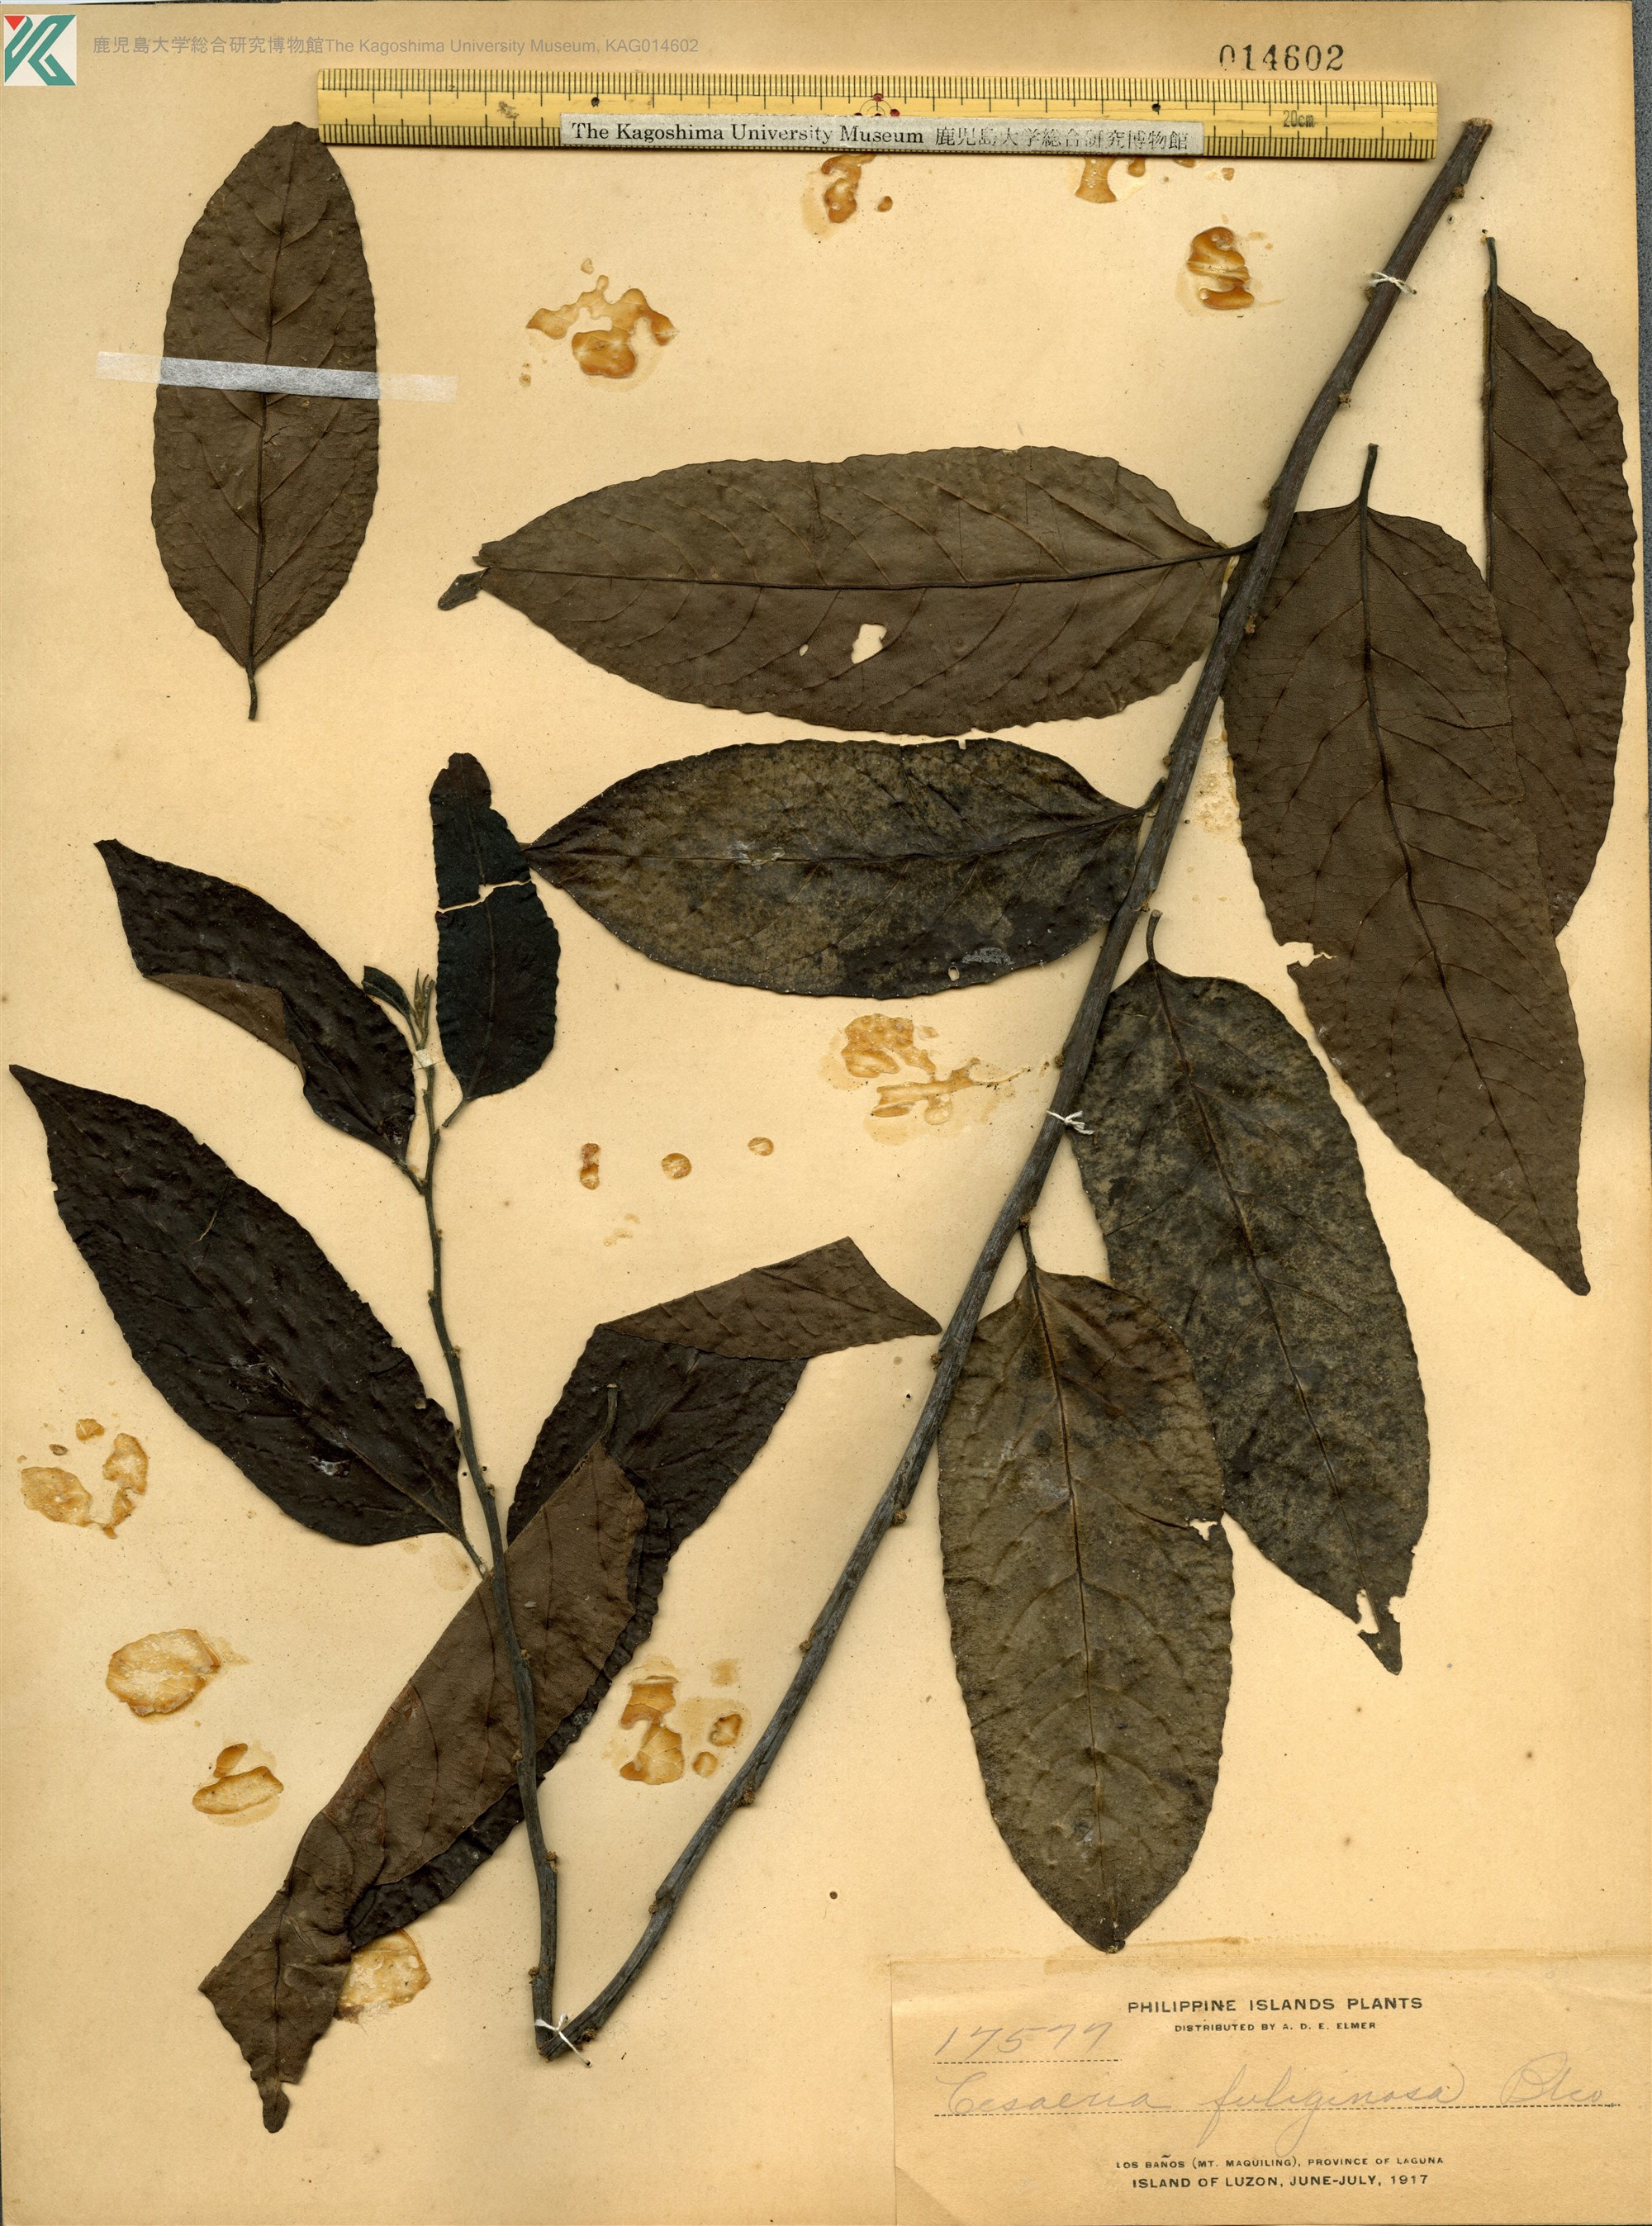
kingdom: Plantae
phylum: Tracheophyta
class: Magnoliopsida
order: Malpighiales
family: Salicaceae
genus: Casearia
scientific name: Casearia fuliginosa
